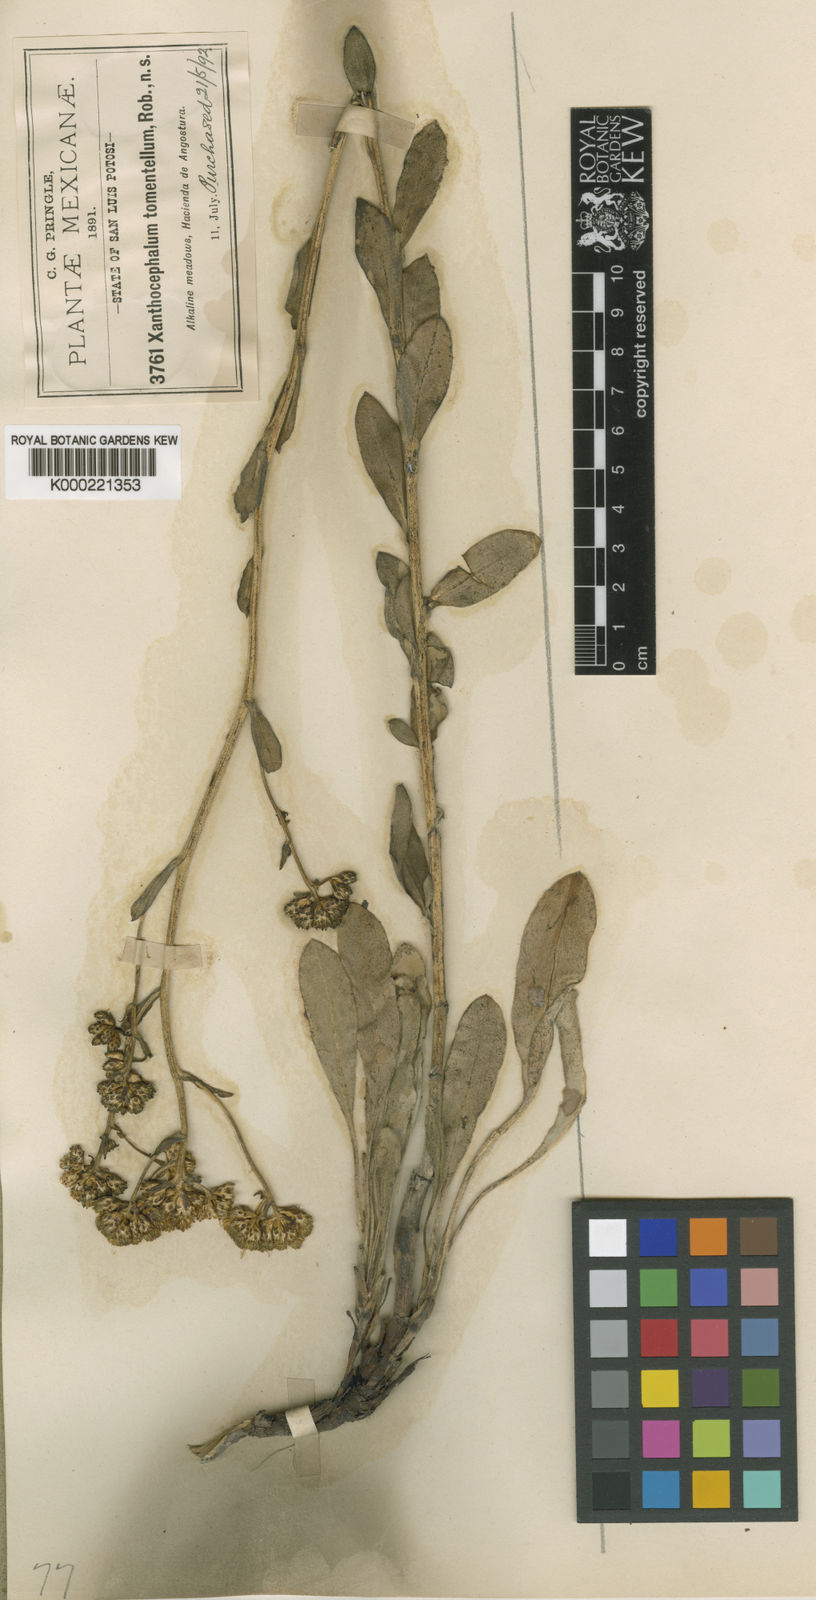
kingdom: Plantae
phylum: Tracheophyta
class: Magnoliopsida
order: Asterales
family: Asteraceae
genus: Stephanodoria
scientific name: Stephanodoria tomentella
